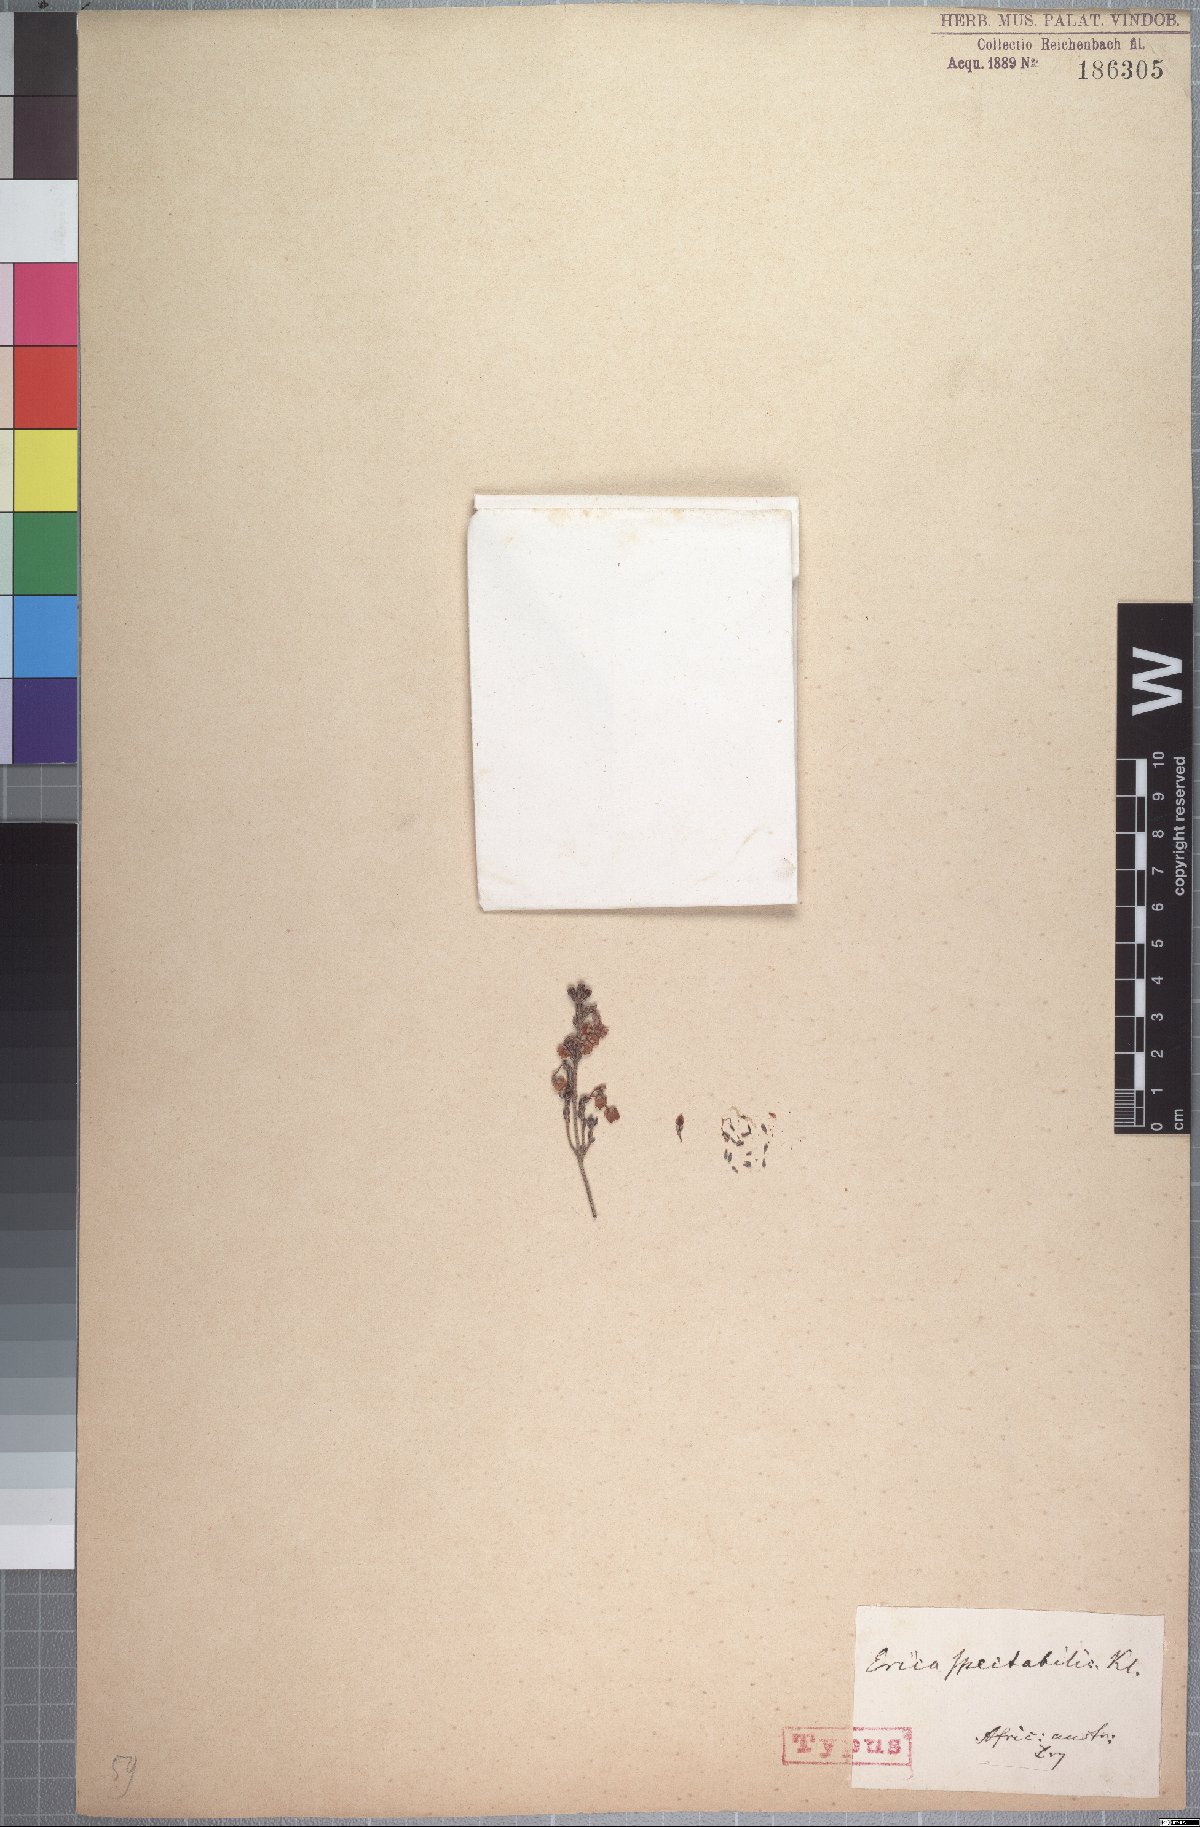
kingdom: Plantae
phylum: Tracheophyta
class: Magnoliopsida
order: Ericales
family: Ericaceae
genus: Erica
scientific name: Erica spectabilis
